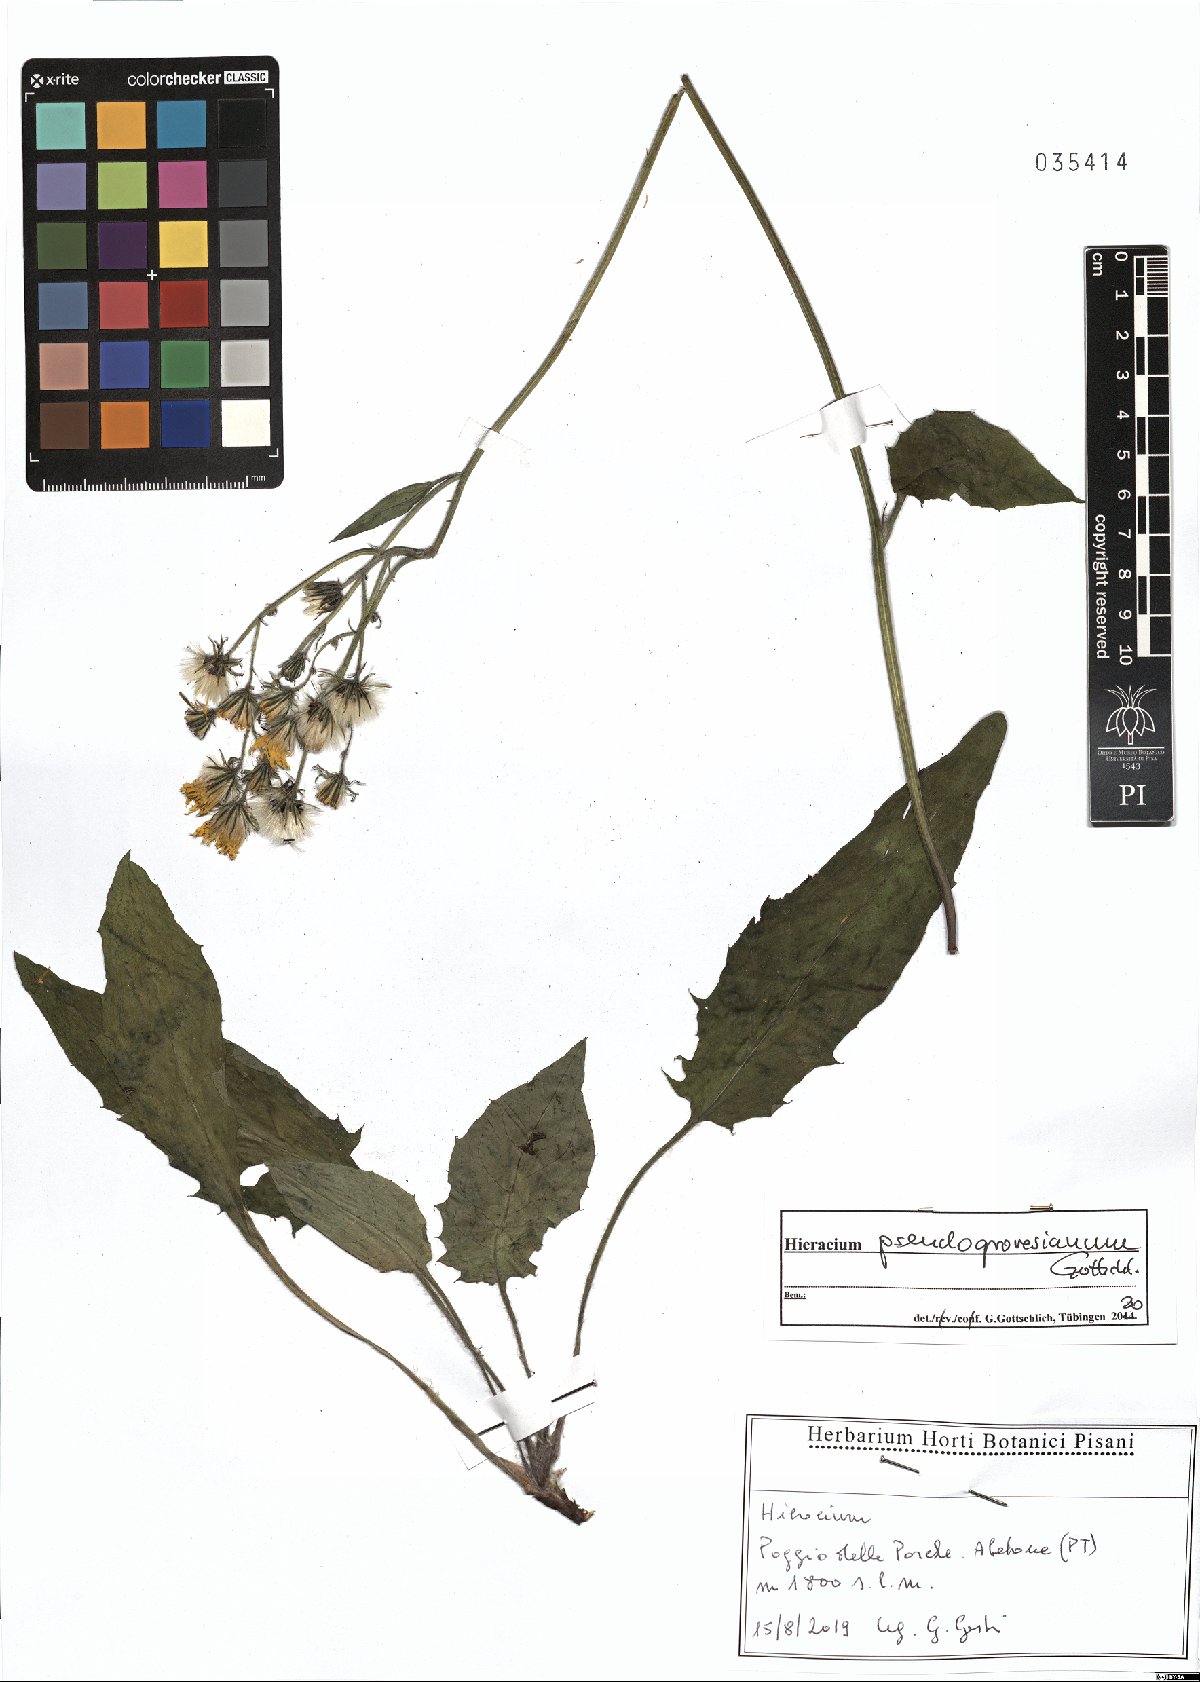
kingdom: Plantae
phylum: Tracheophyta
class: Magnoliopsida
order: Asterales
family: Asteraceae
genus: Hieracium
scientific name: Hieracium pseudogrovesianum
